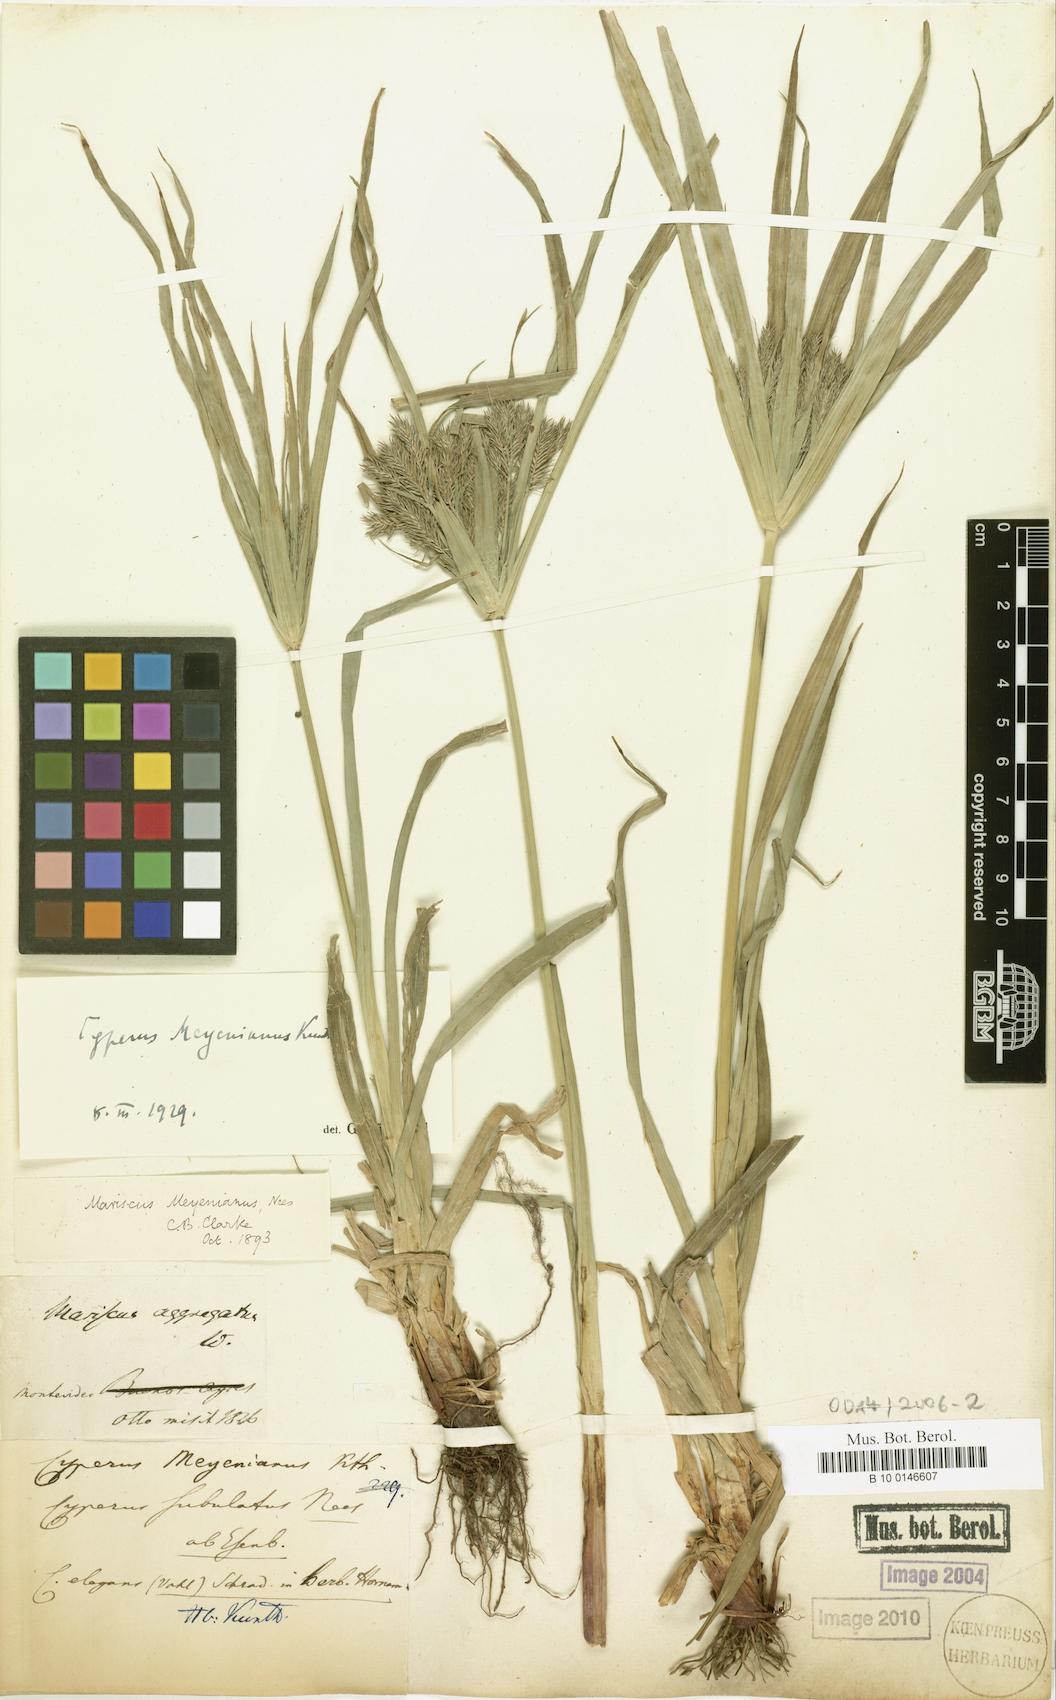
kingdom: Plantae
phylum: Tracheophyta
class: Liliopsida
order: Poales
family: Cyperaceae
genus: Cyperus
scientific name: Cyperus meyenianus
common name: Meyen's flatsedge
